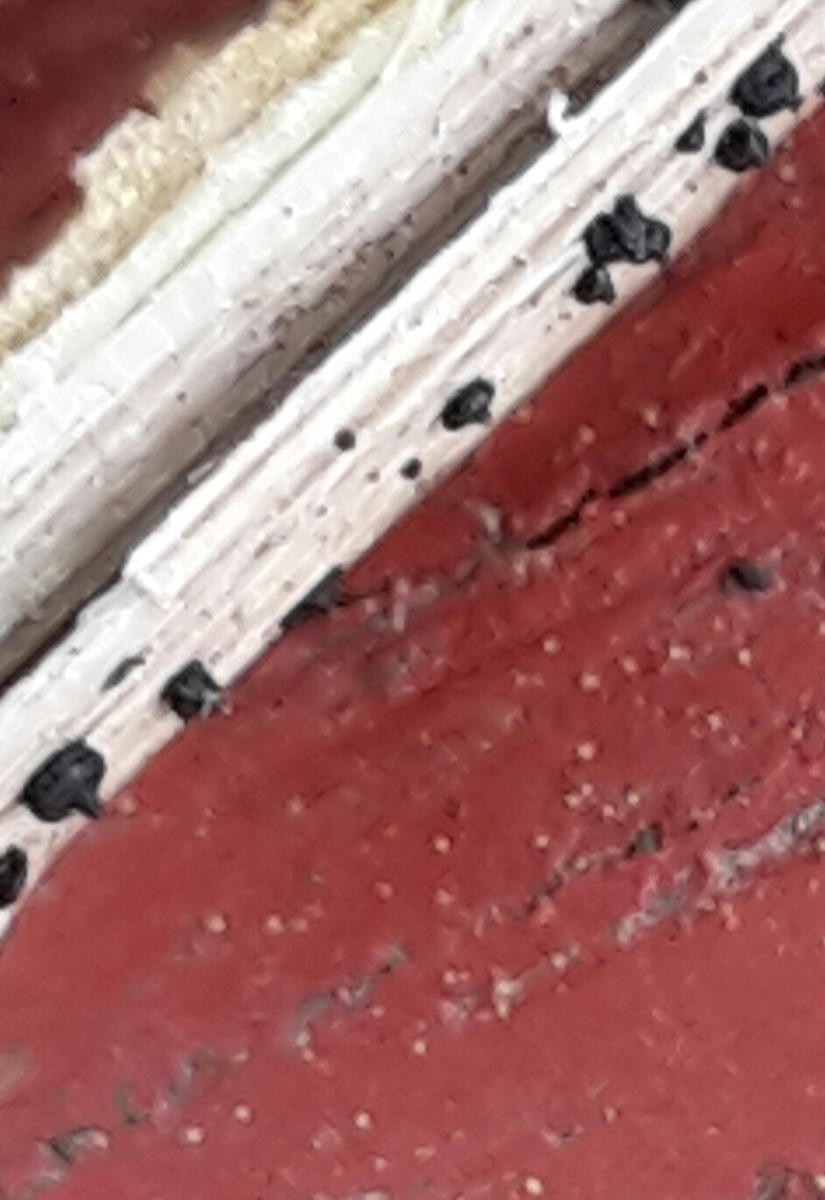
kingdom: Fungi
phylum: Ascomycota
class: Dothideomycetes
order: Pleosporales
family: Leptosphaeriaceae
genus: Leptosphaeria
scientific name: Leptosphaeria
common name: kulkegle
